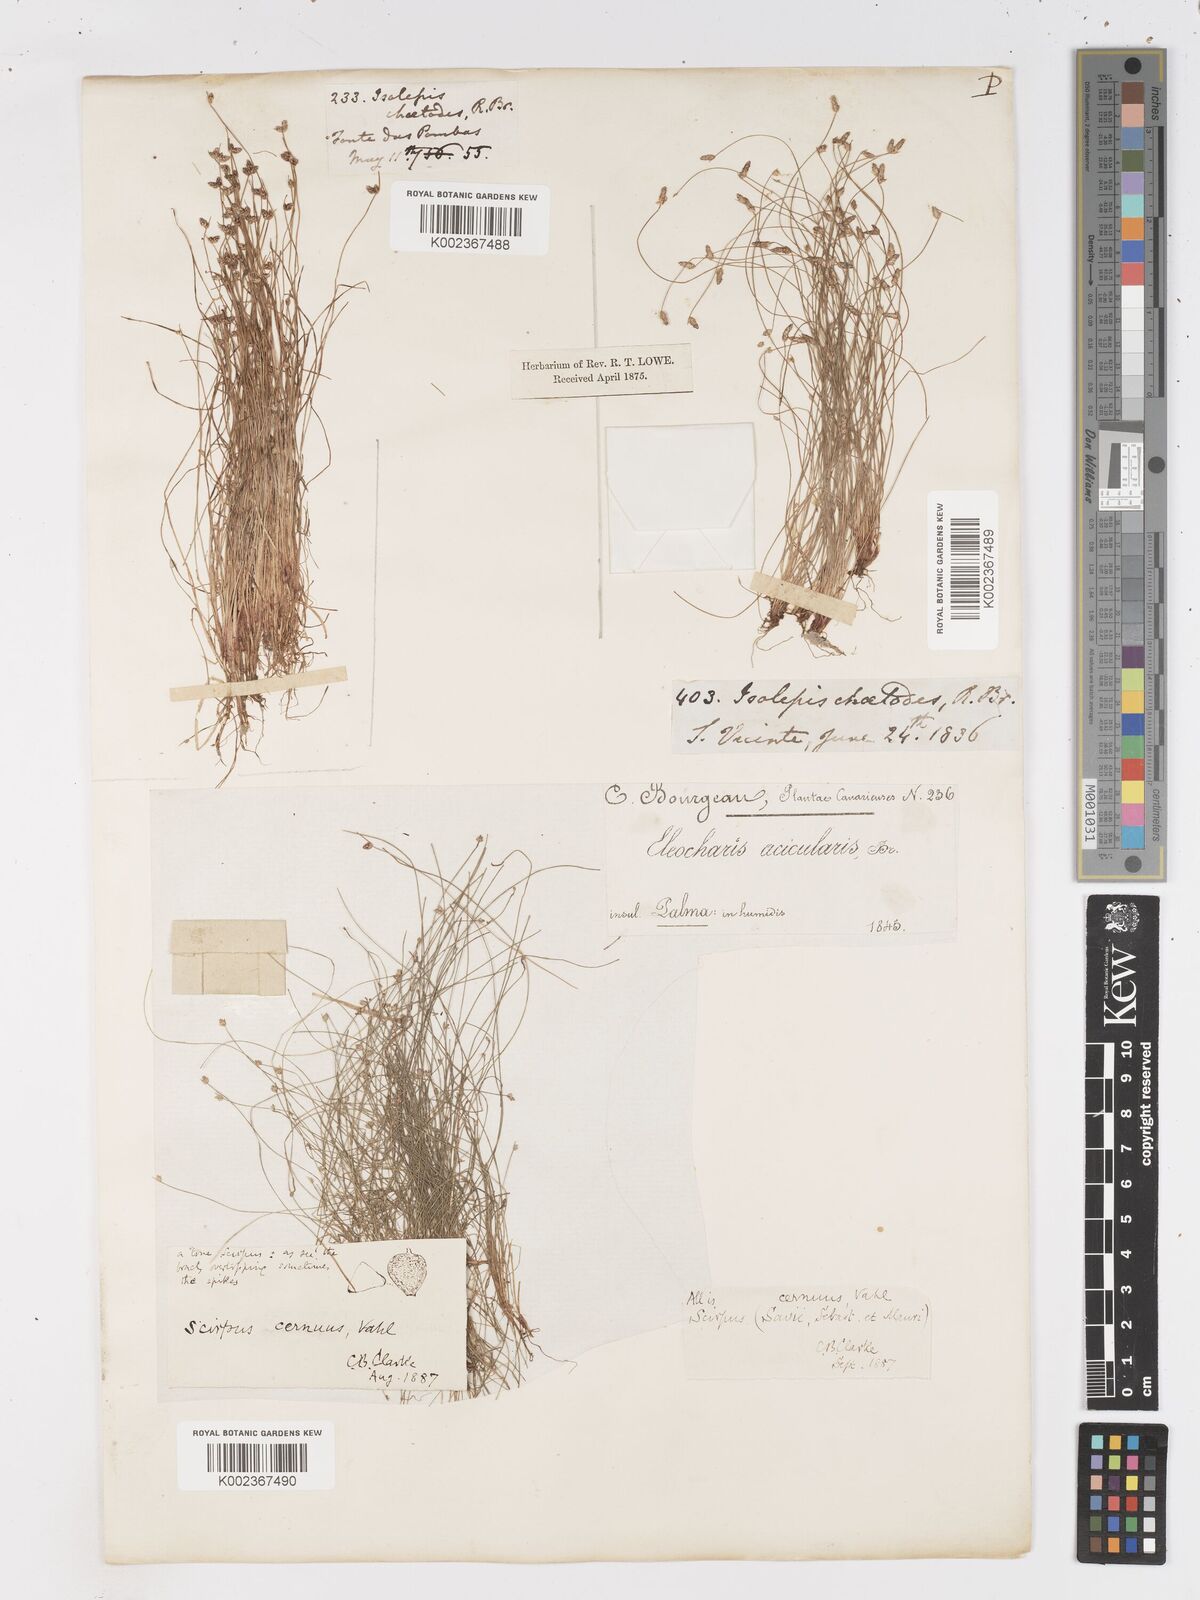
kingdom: Plantae
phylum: Tracheophyta
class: Liliopsida
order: Poales
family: Cyperaceae
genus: Isolepis
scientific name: Isolepis cernua
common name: Slender club-rush
